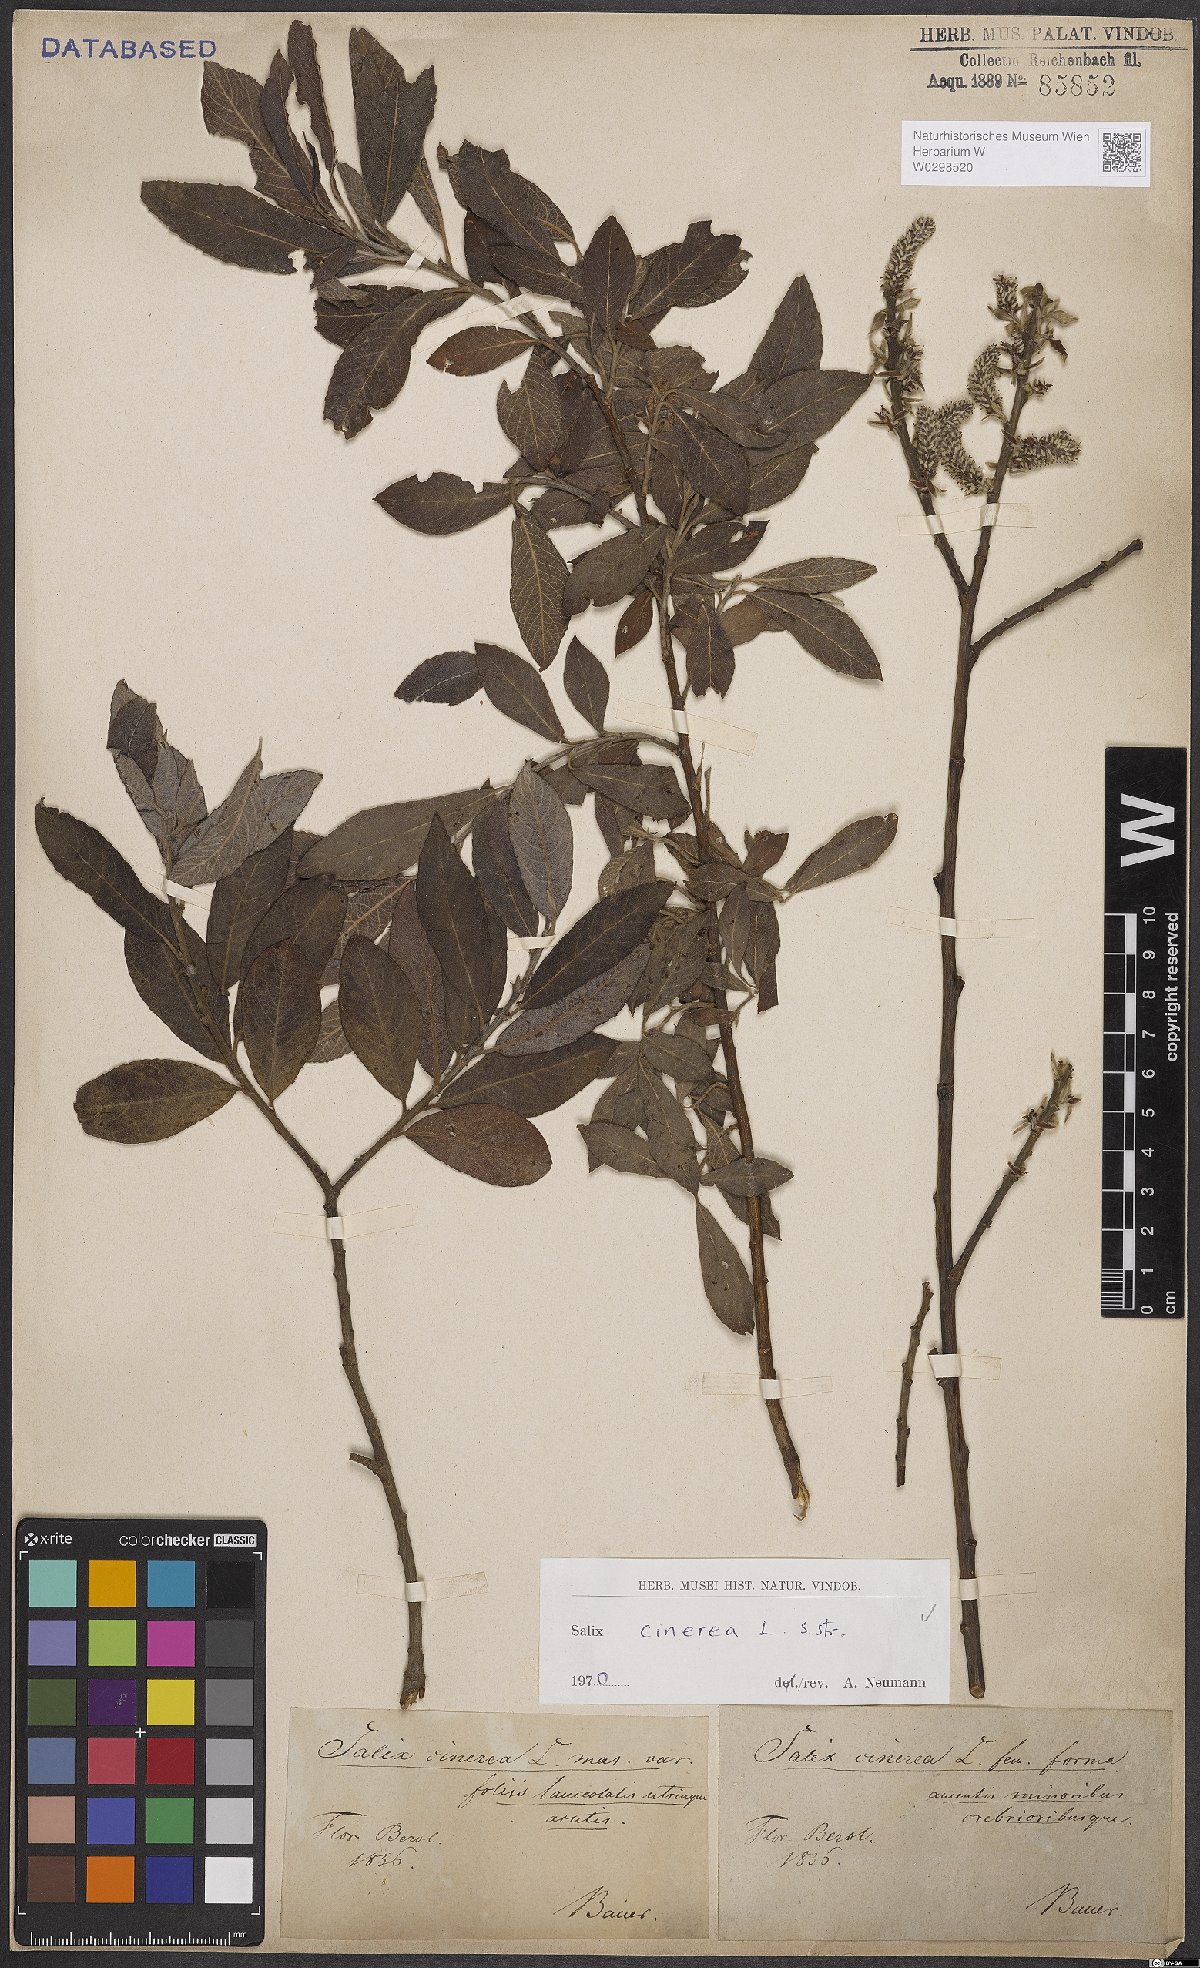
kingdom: Plantae
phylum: Tracheophyta
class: Magnoliopsida
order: Malpighiales
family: Salicaceae
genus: Salix
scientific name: Salix cinerea
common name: Common sallow
